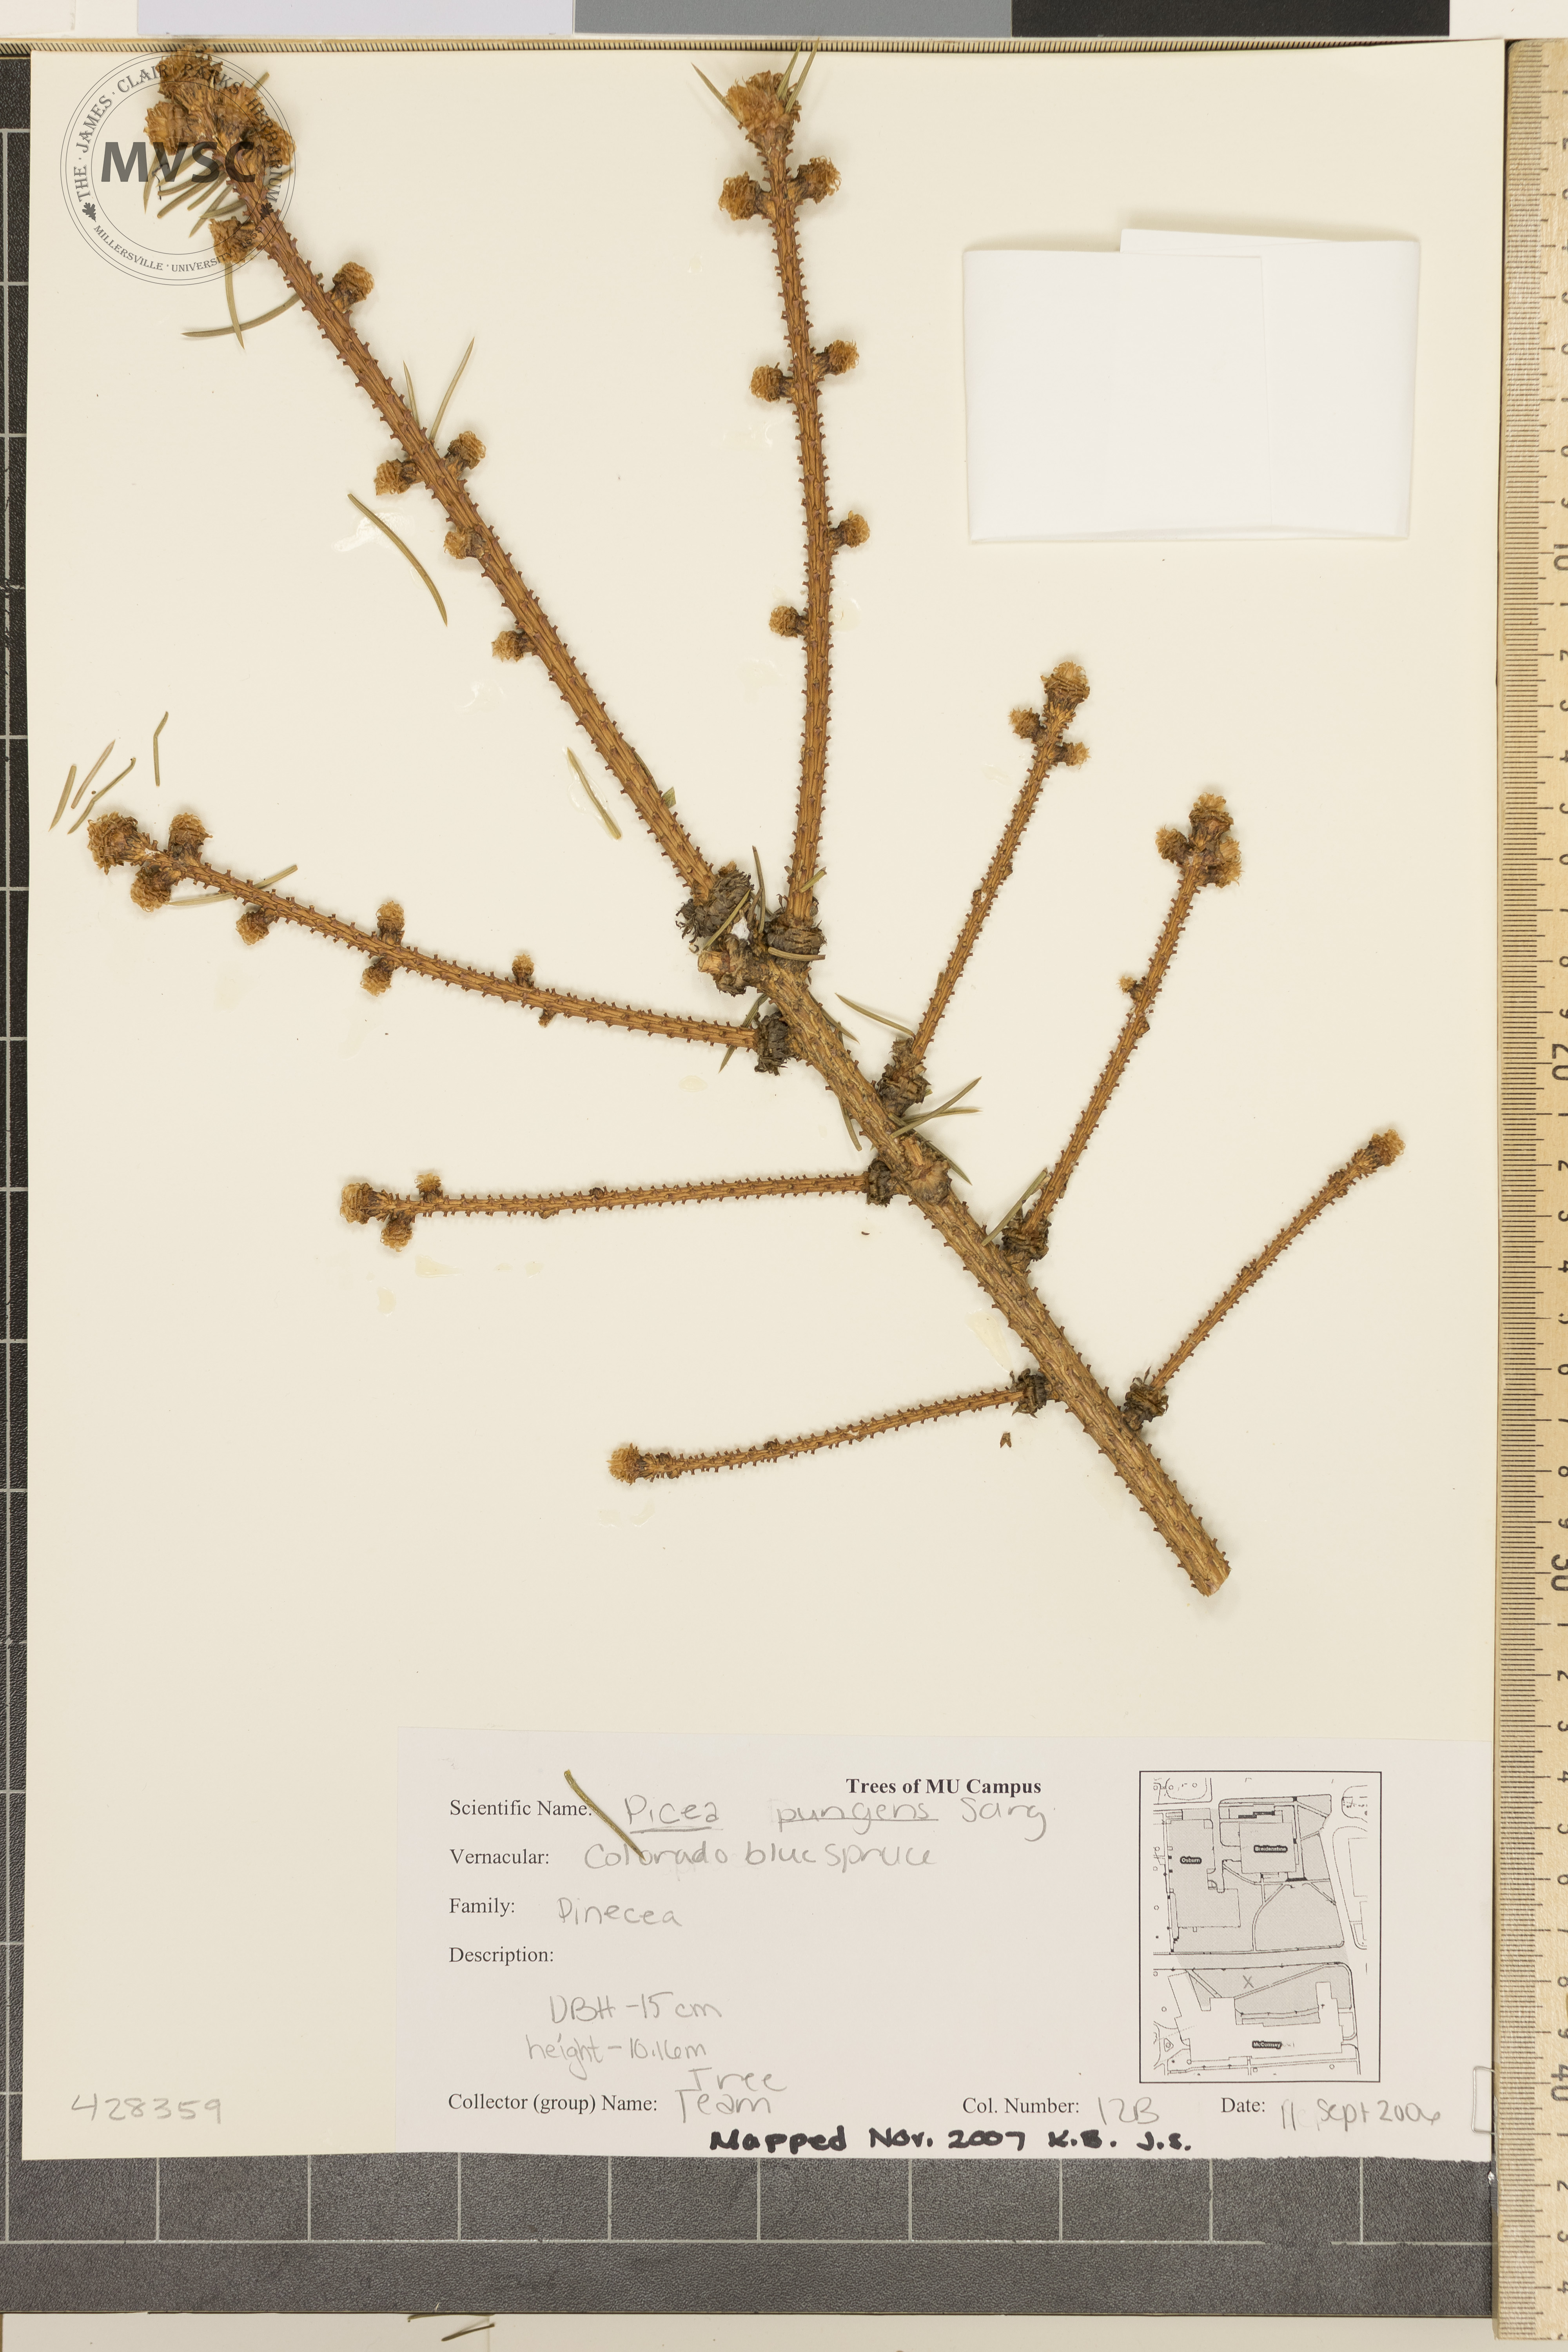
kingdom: Plantae
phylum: Tracheophyta
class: Pinopsida
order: Pinales
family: Pinaceae
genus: Picea
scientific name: Picea pungens
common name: Colorado Blue Spruce
